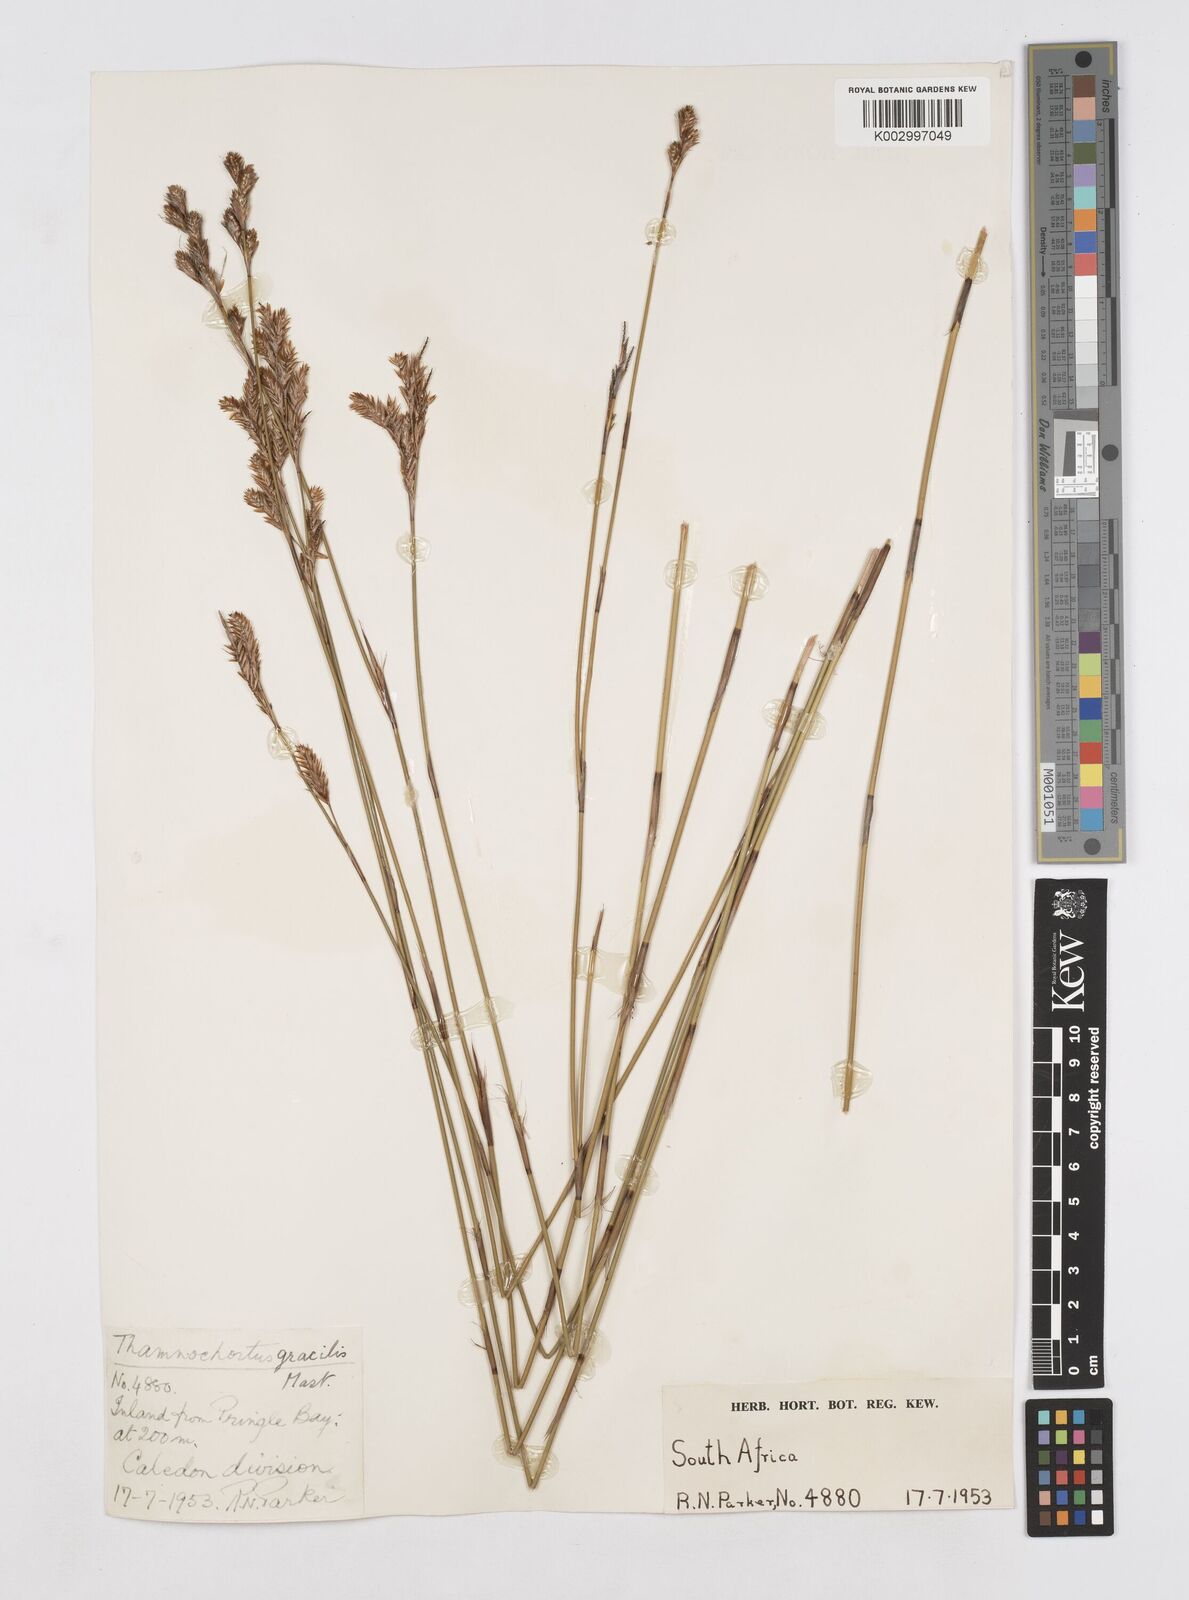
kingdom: Plantae
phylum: Tracheophyta
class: Liliopsida
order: Poales
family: Restionaceae
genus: Thamnochortus
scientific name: Thamnochortus gracilis
